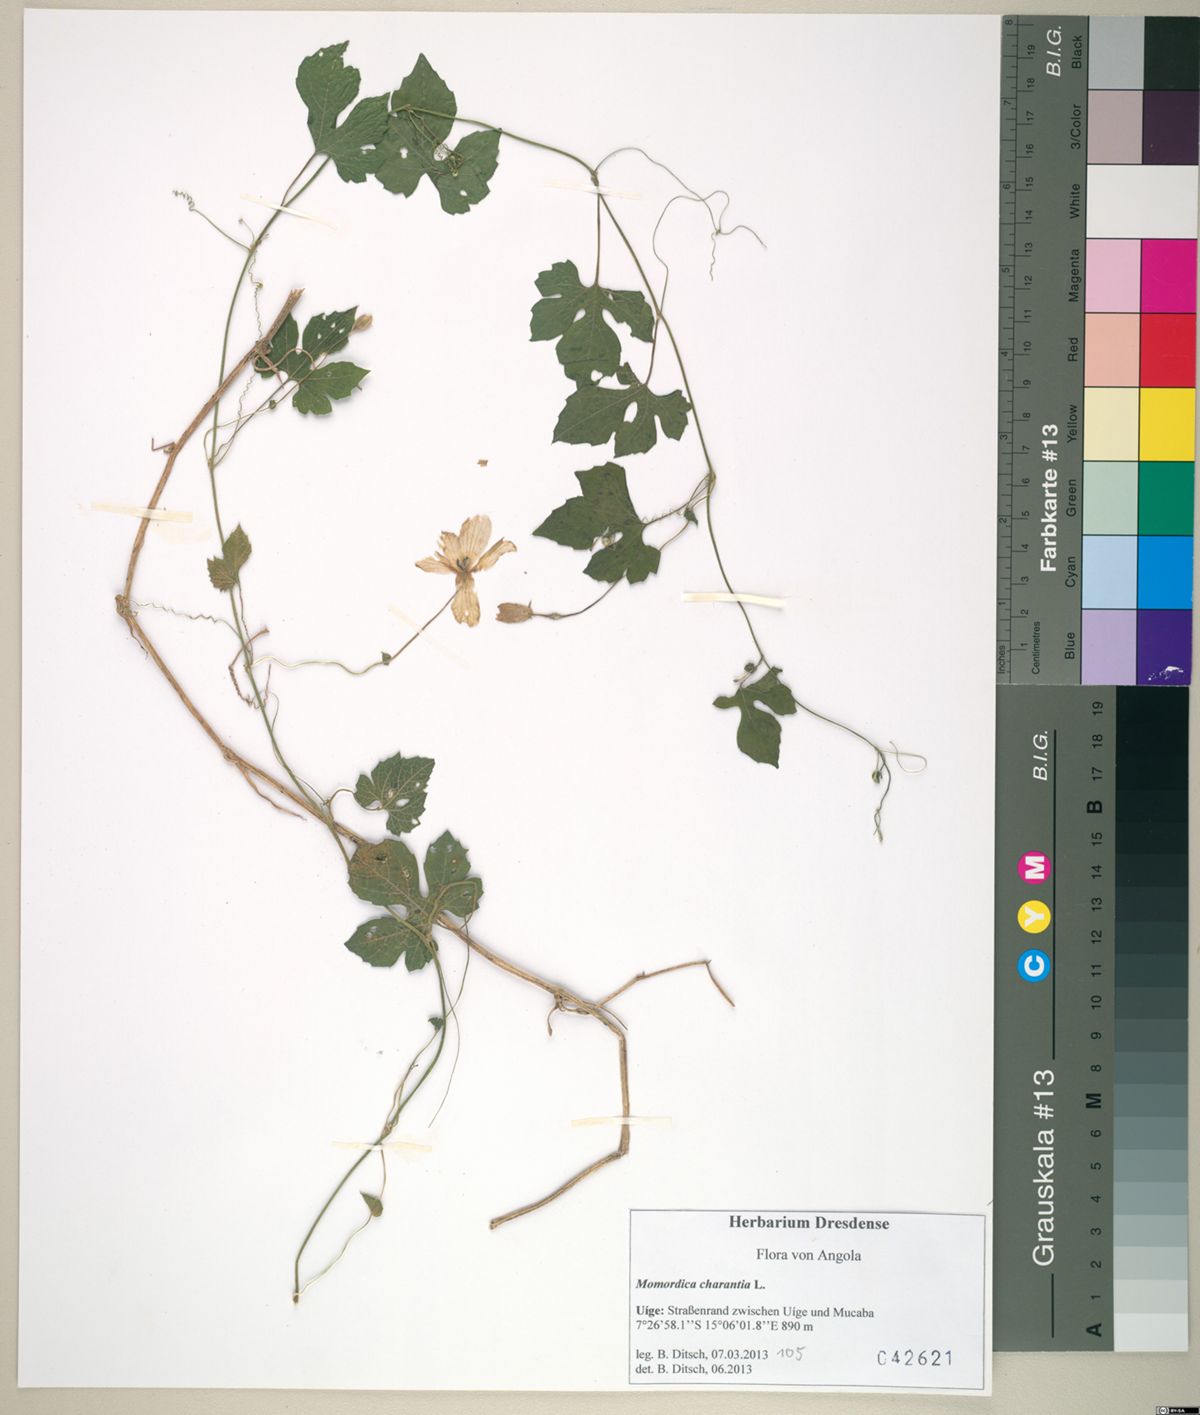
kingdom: Plantae
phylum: Tracheophyta
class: Magnoliopsida
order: Cucurbitales
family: Cucurbitaceae
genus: Momordica
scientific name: Momordica charantia
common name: Balsampear
